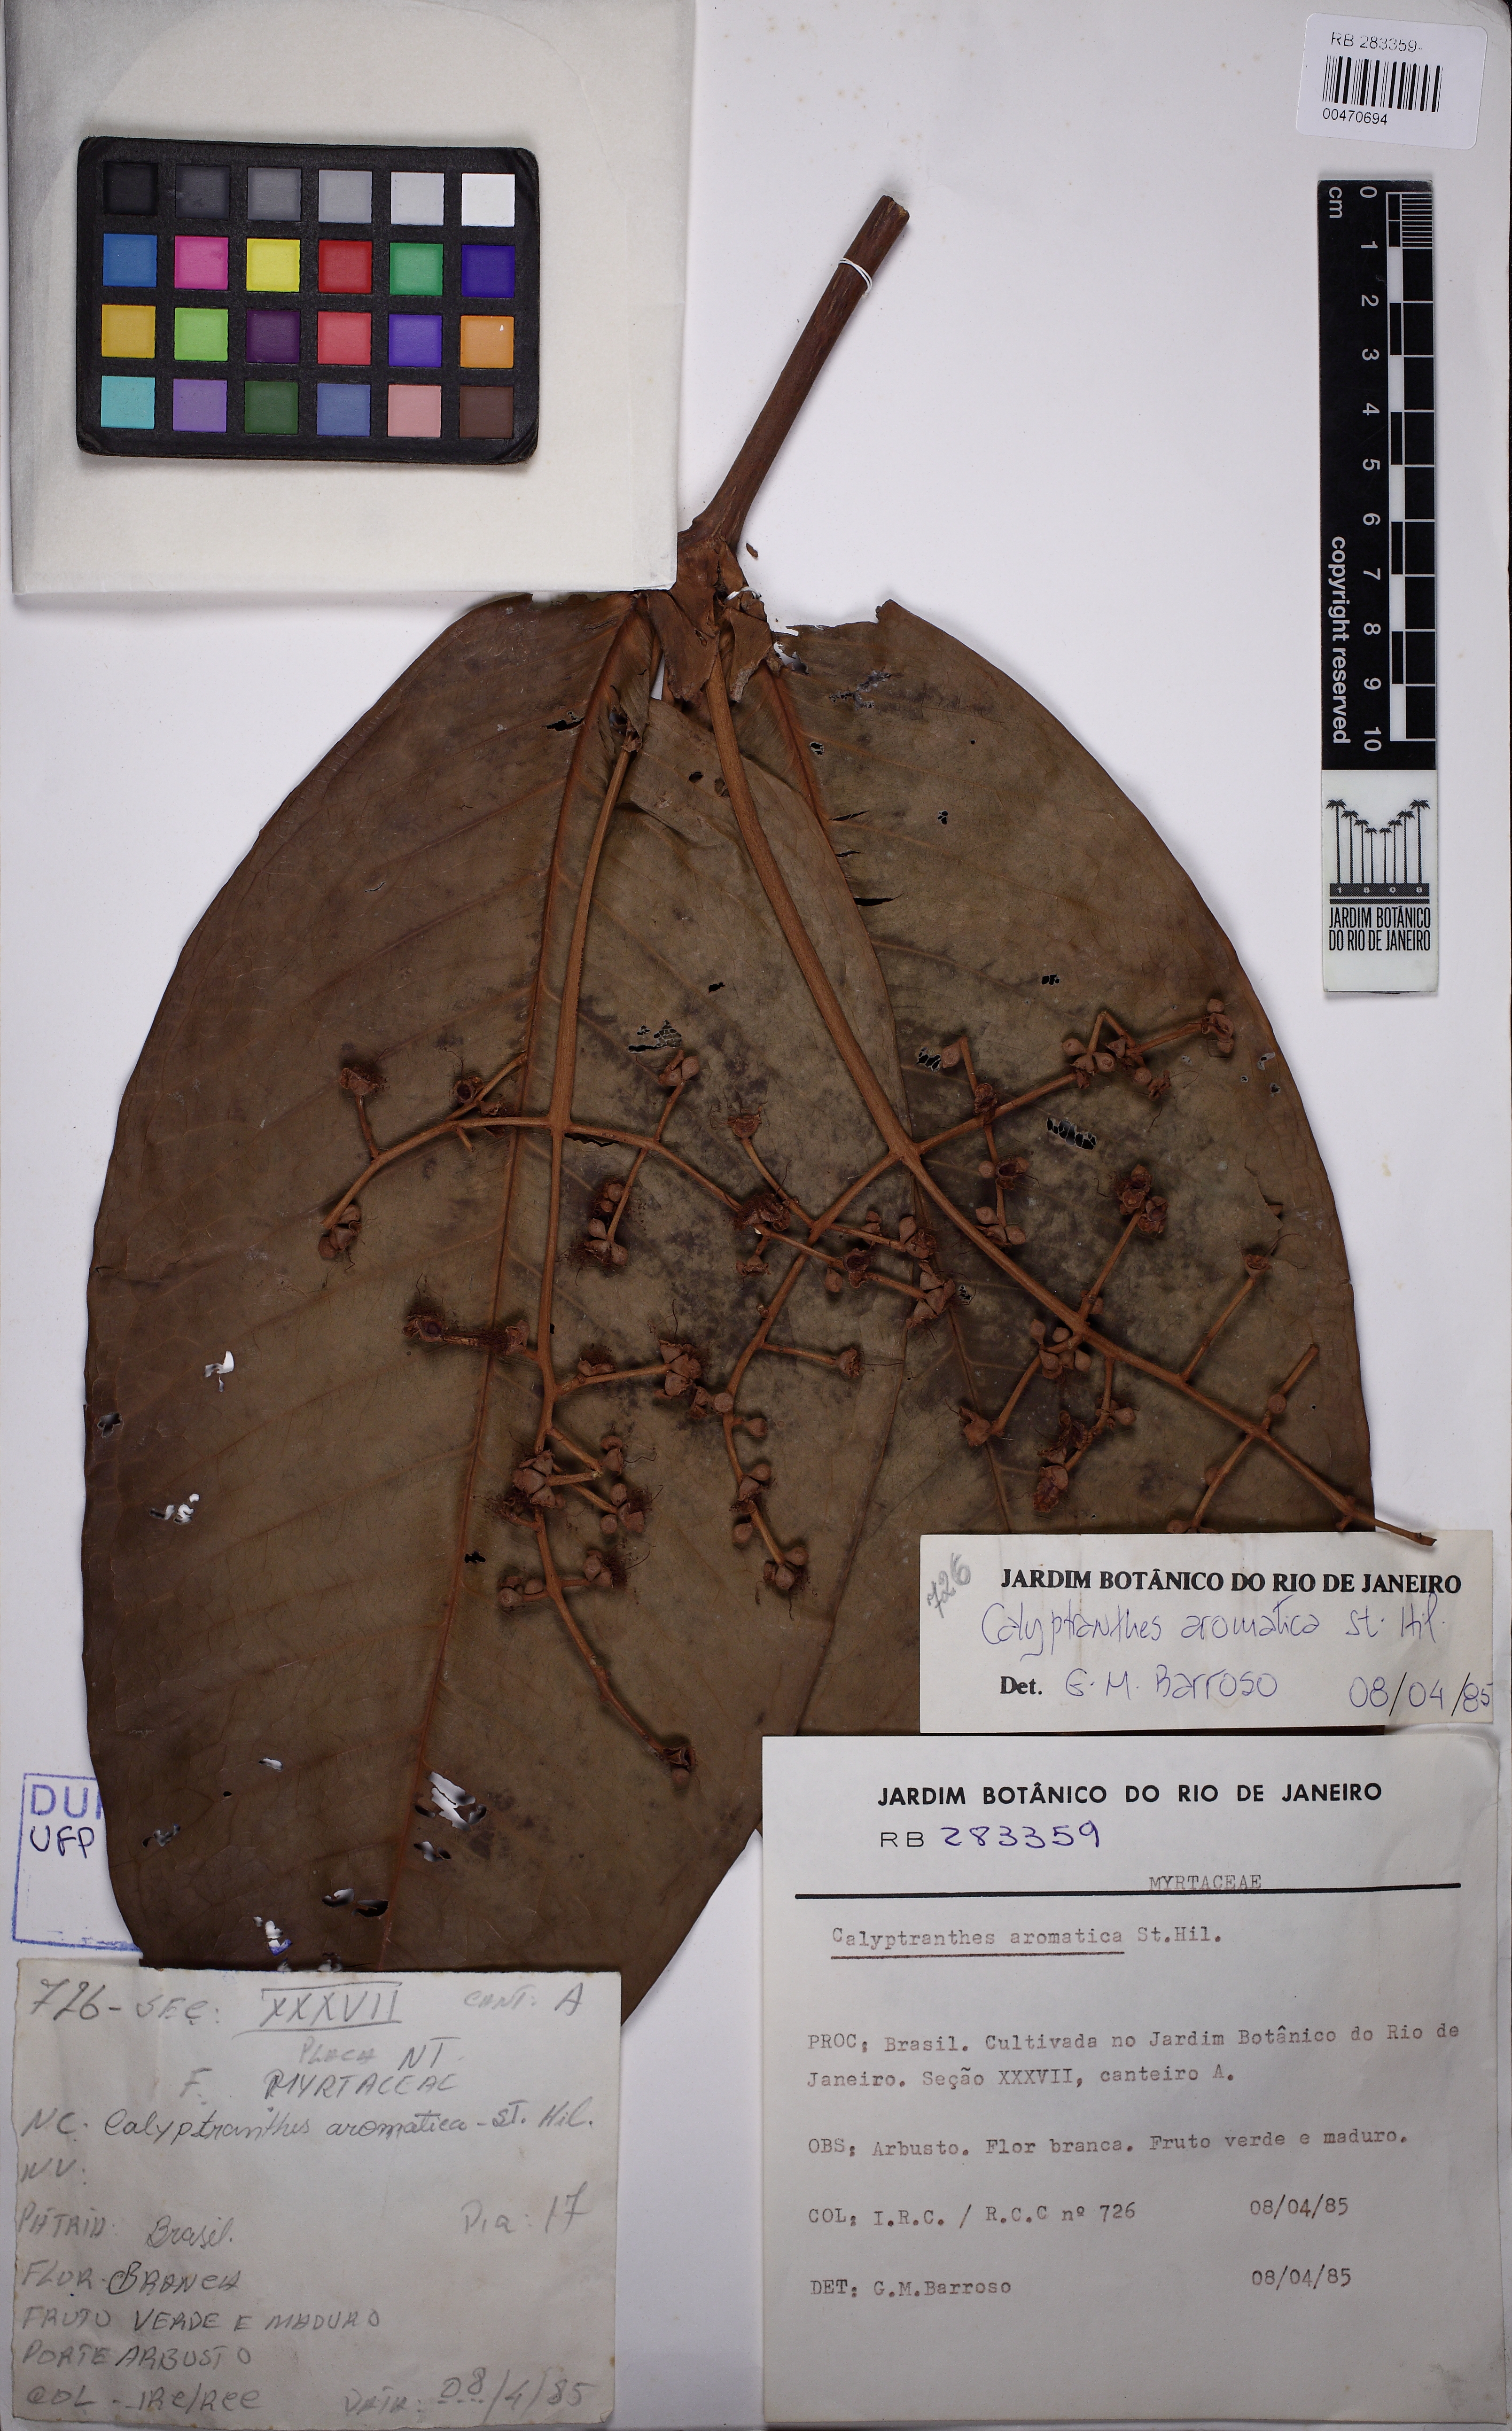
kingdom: Plantae
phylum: Tracheophyta
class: Magnoliopsida
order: Myrtales
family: Myrtaceae
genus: Myrcia
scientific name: Myrcia carioca
